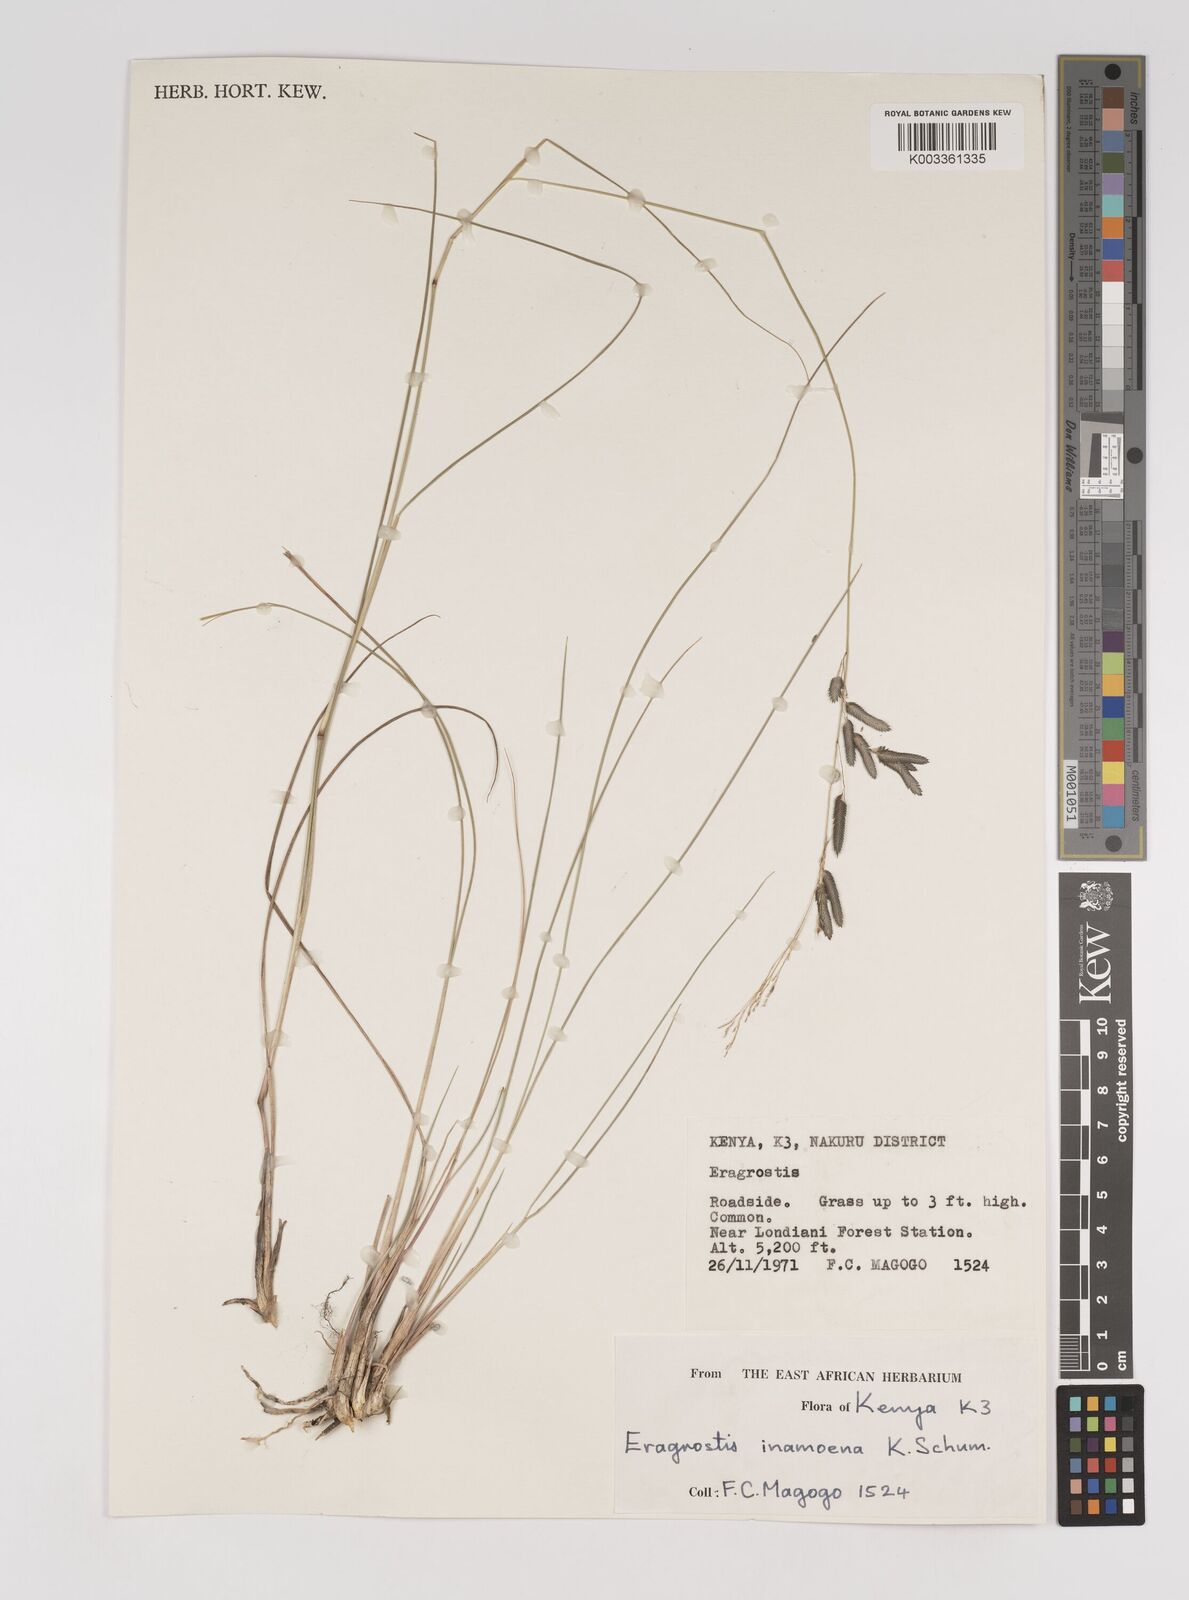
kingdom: Plantae
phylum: Tracheophyta
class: Liliopsida
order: Poales
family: Poaceae
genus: Eragrostis
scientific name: Eragrostis inamoena
